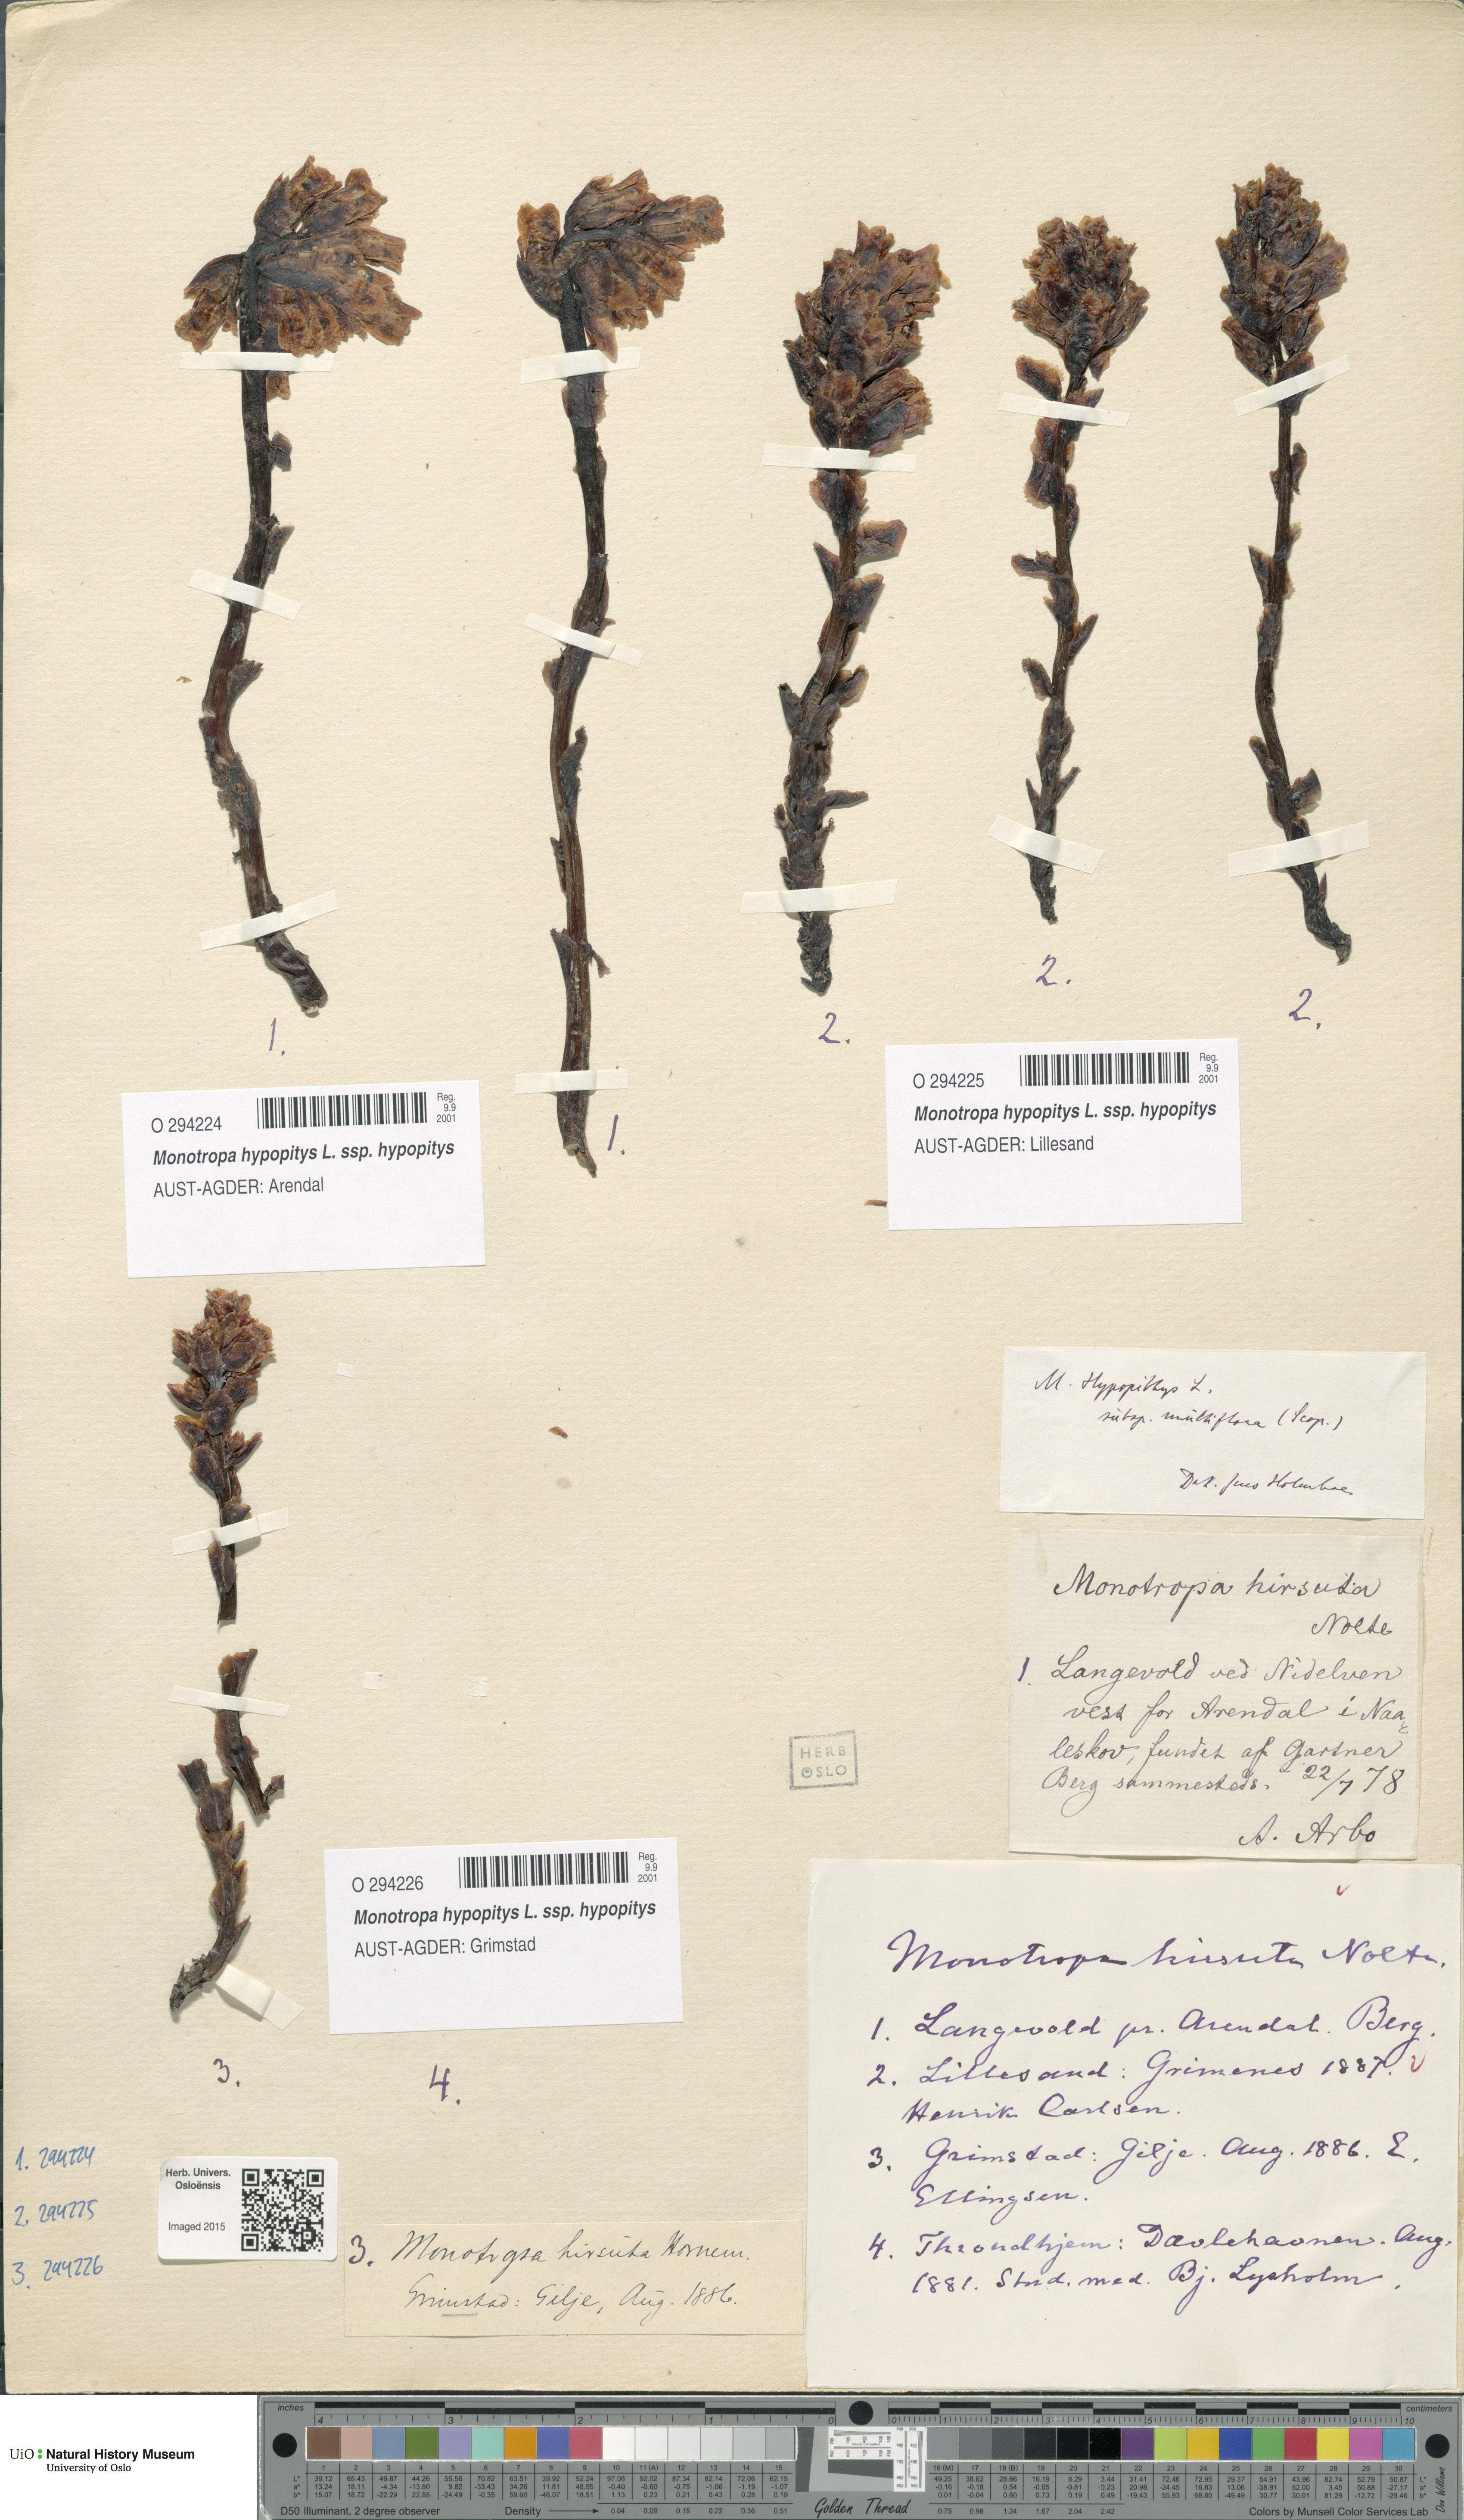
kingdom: Plantae
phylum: Tracheophyta
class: Magnoliopsida
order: Ericales
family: Ericaceae
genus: Hypopitys
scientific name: Hypopitys monotropa
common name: Yellow bird's-nest
